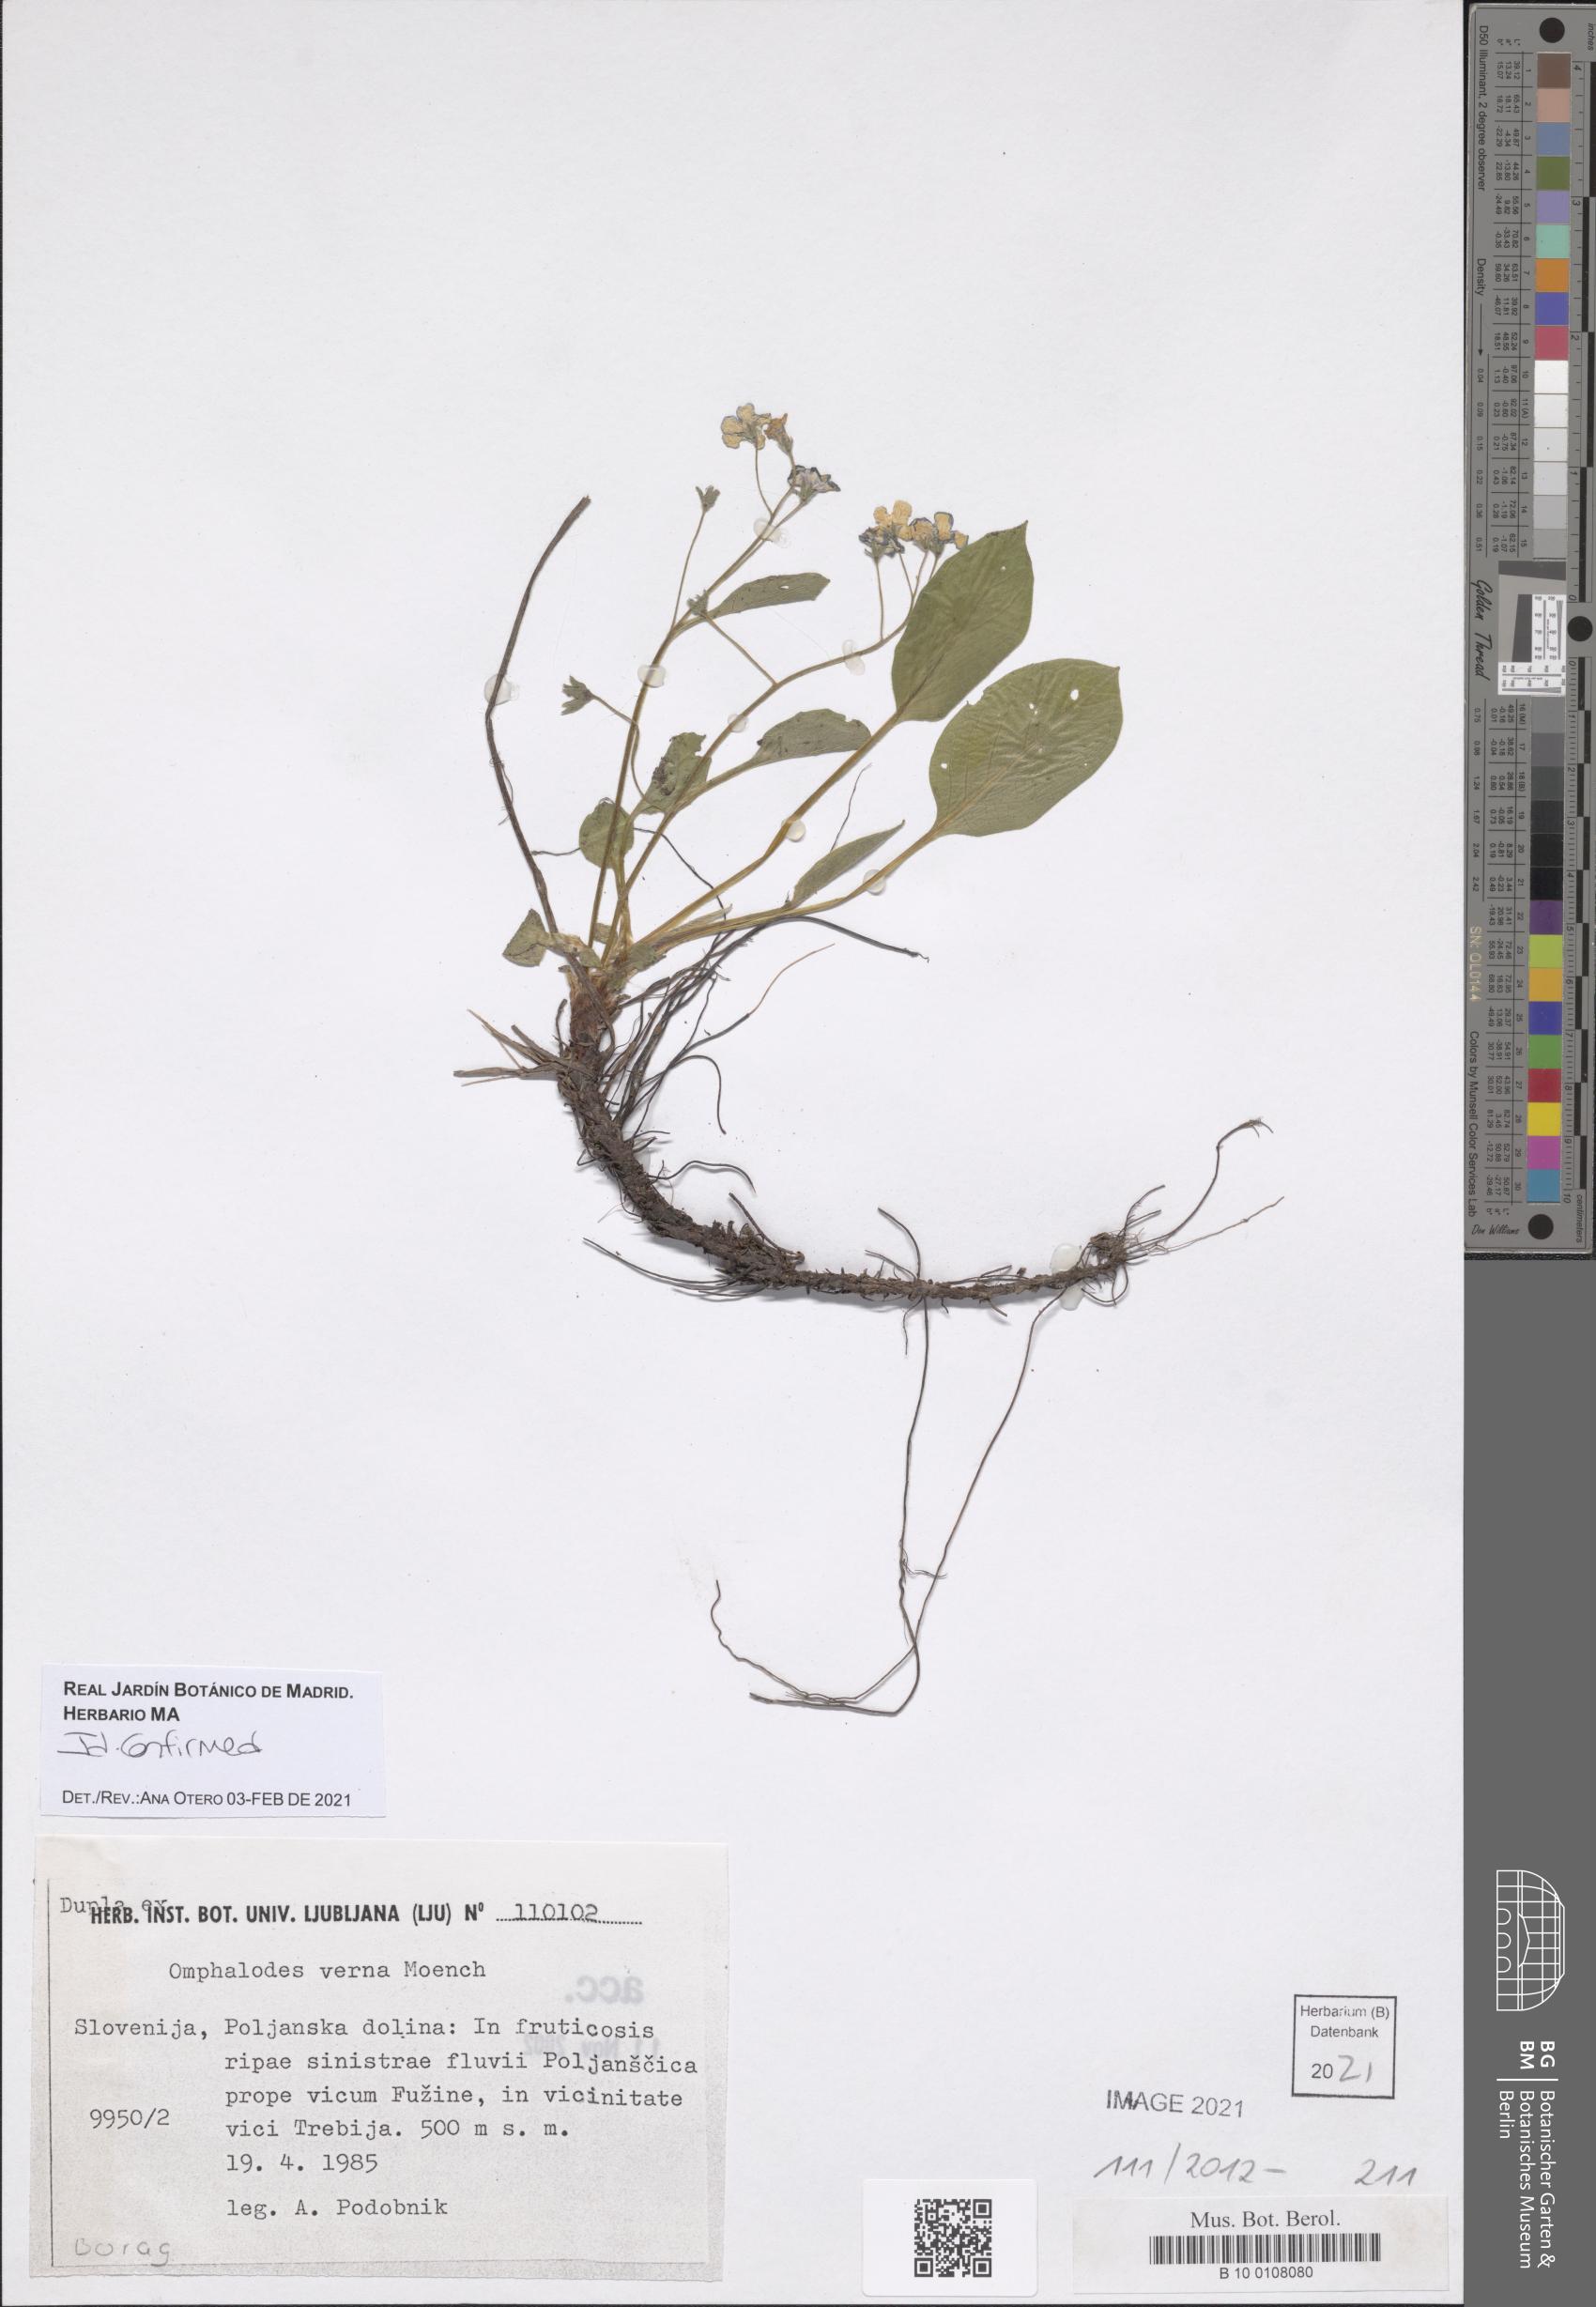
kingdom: Plantae
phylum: Tracheophyta
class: Magnoliopsida
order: Boraginales
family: Boraginaceae
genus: Omphalodes
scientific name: Omphalodes verna
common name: Blue-eyed-mary
